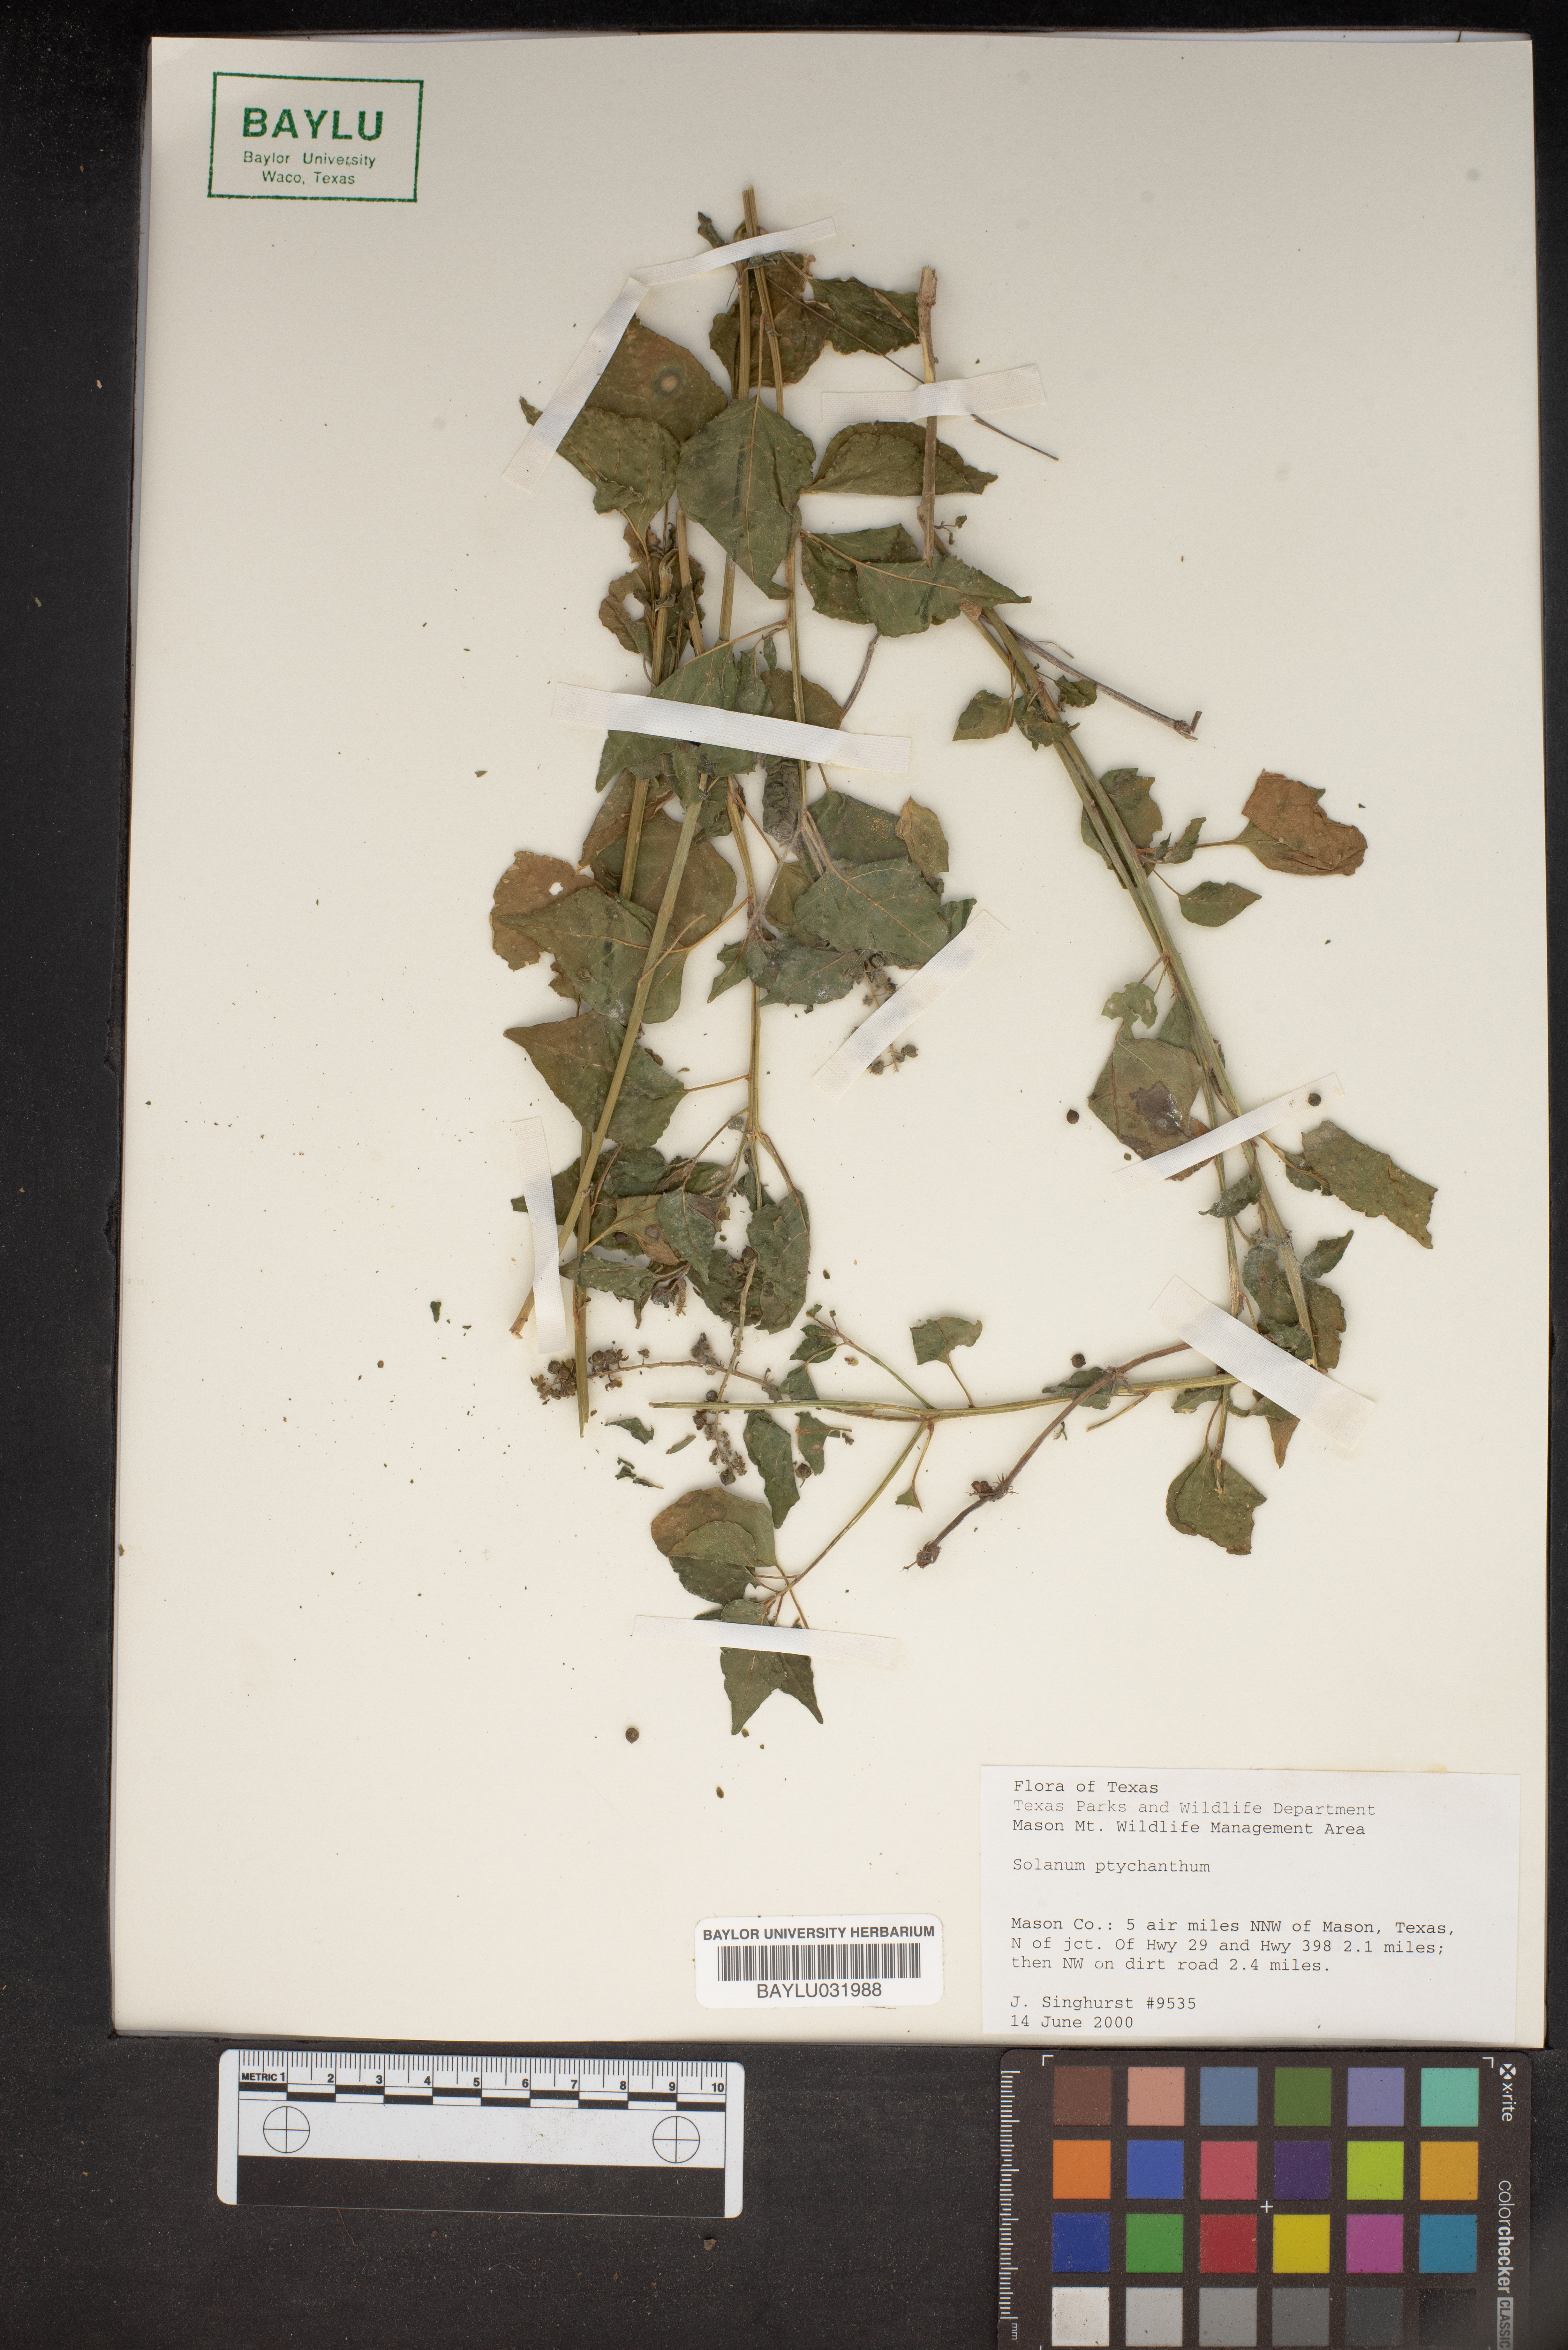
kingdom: Plantae
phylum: Tracheophyta
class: Magnoliopsida
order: Solanales
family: Solanaceae
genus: Solanum
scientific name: Solanum americanum
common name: American black nightshade
